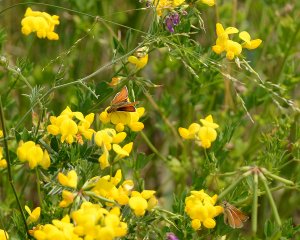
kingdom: Animalia
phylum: Arthropoda
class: Insecta
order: Lepidoptera
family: Hesperiidae
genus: Thymelicus
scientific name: Thymelicus lineola
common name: European Skipper
